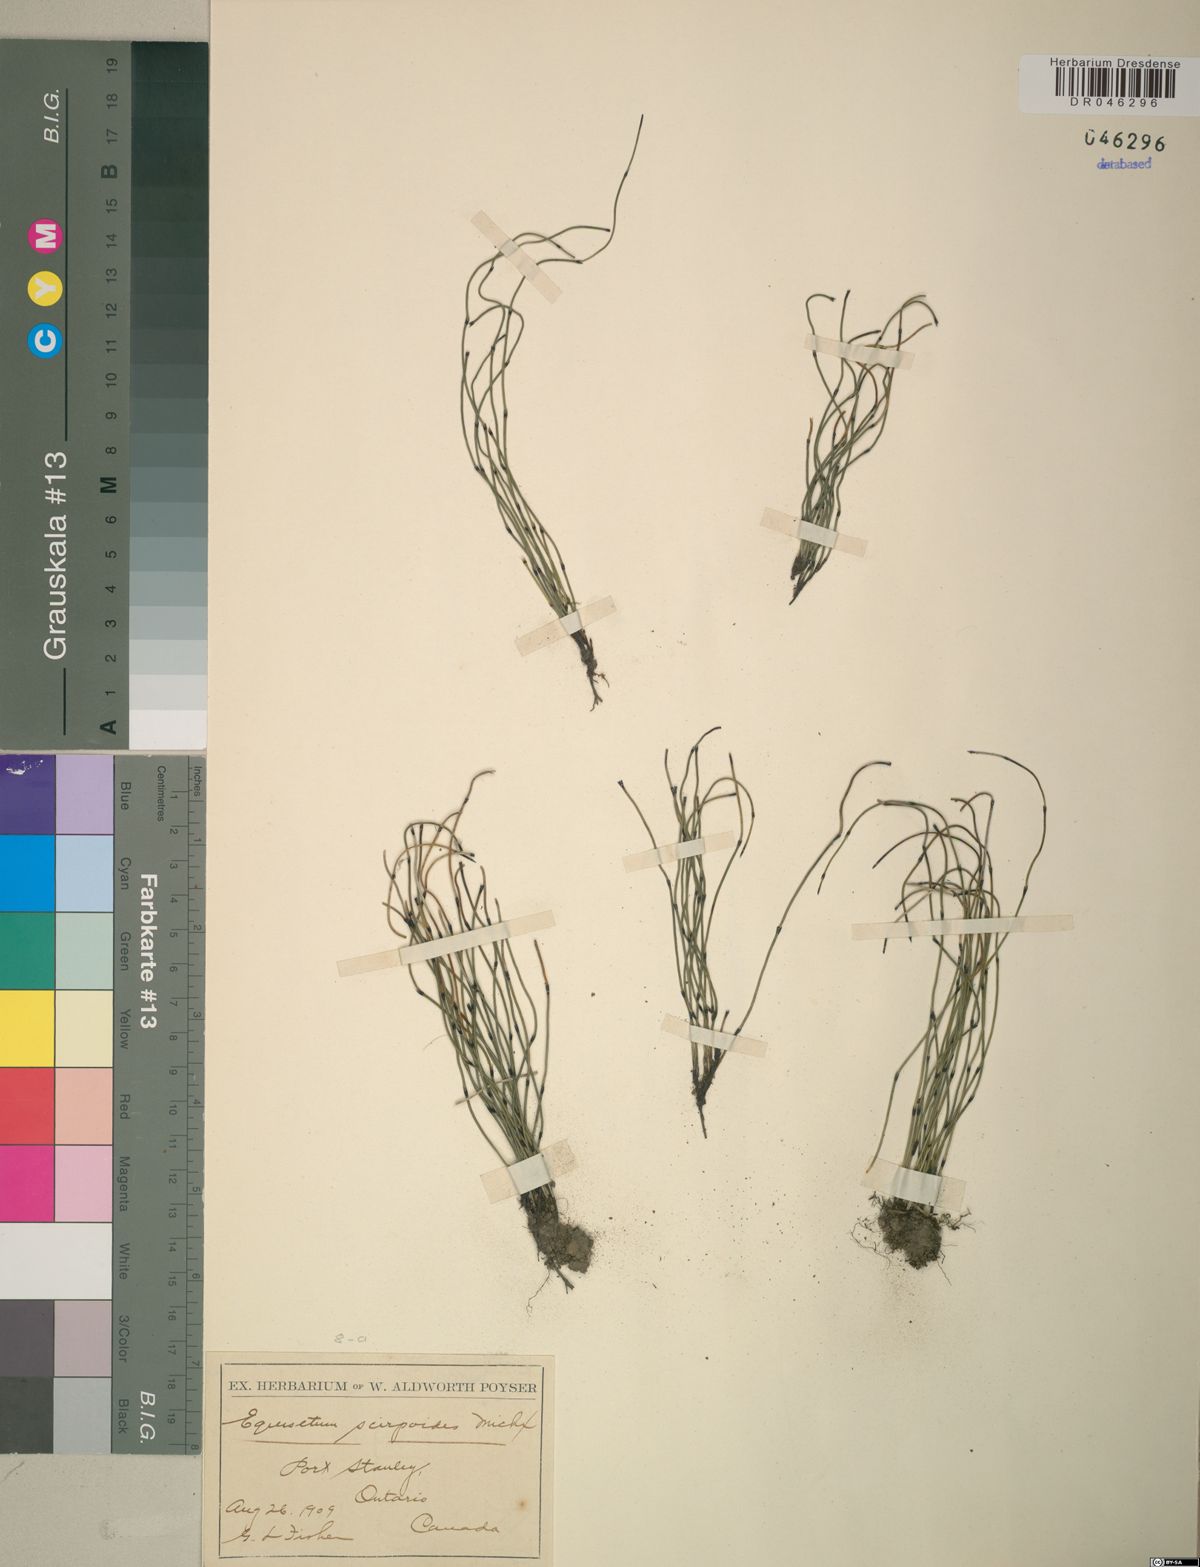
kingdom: Plantae
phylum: Tracheophyta
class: Polypodiopsida
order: Equisetales
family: Equisetaceae
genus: Equisetum
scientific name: Equisetum scirpoides
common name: Delicate horsetail
